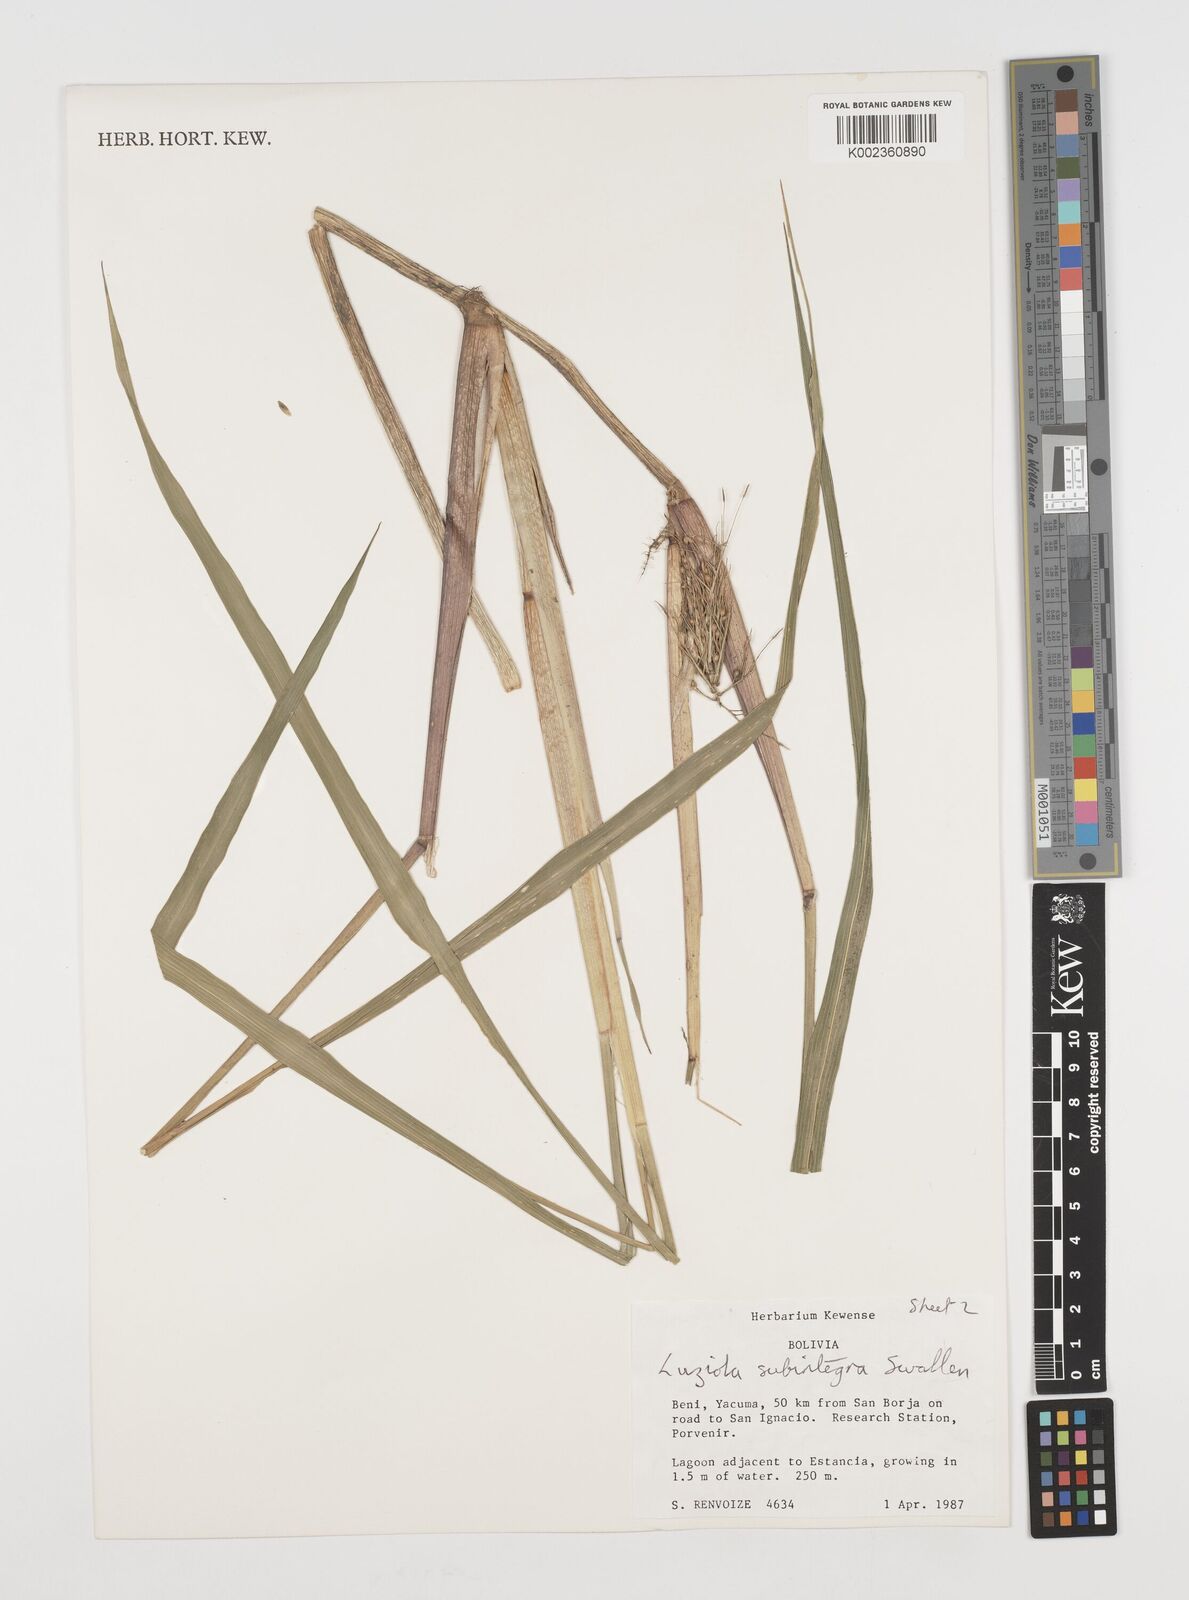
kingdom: Plantae
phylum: Tracheophyta
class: Liliopsida
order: Poales
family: Poaceae
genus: Luziola
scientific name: Luziola subintegra
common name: Large watergrass
